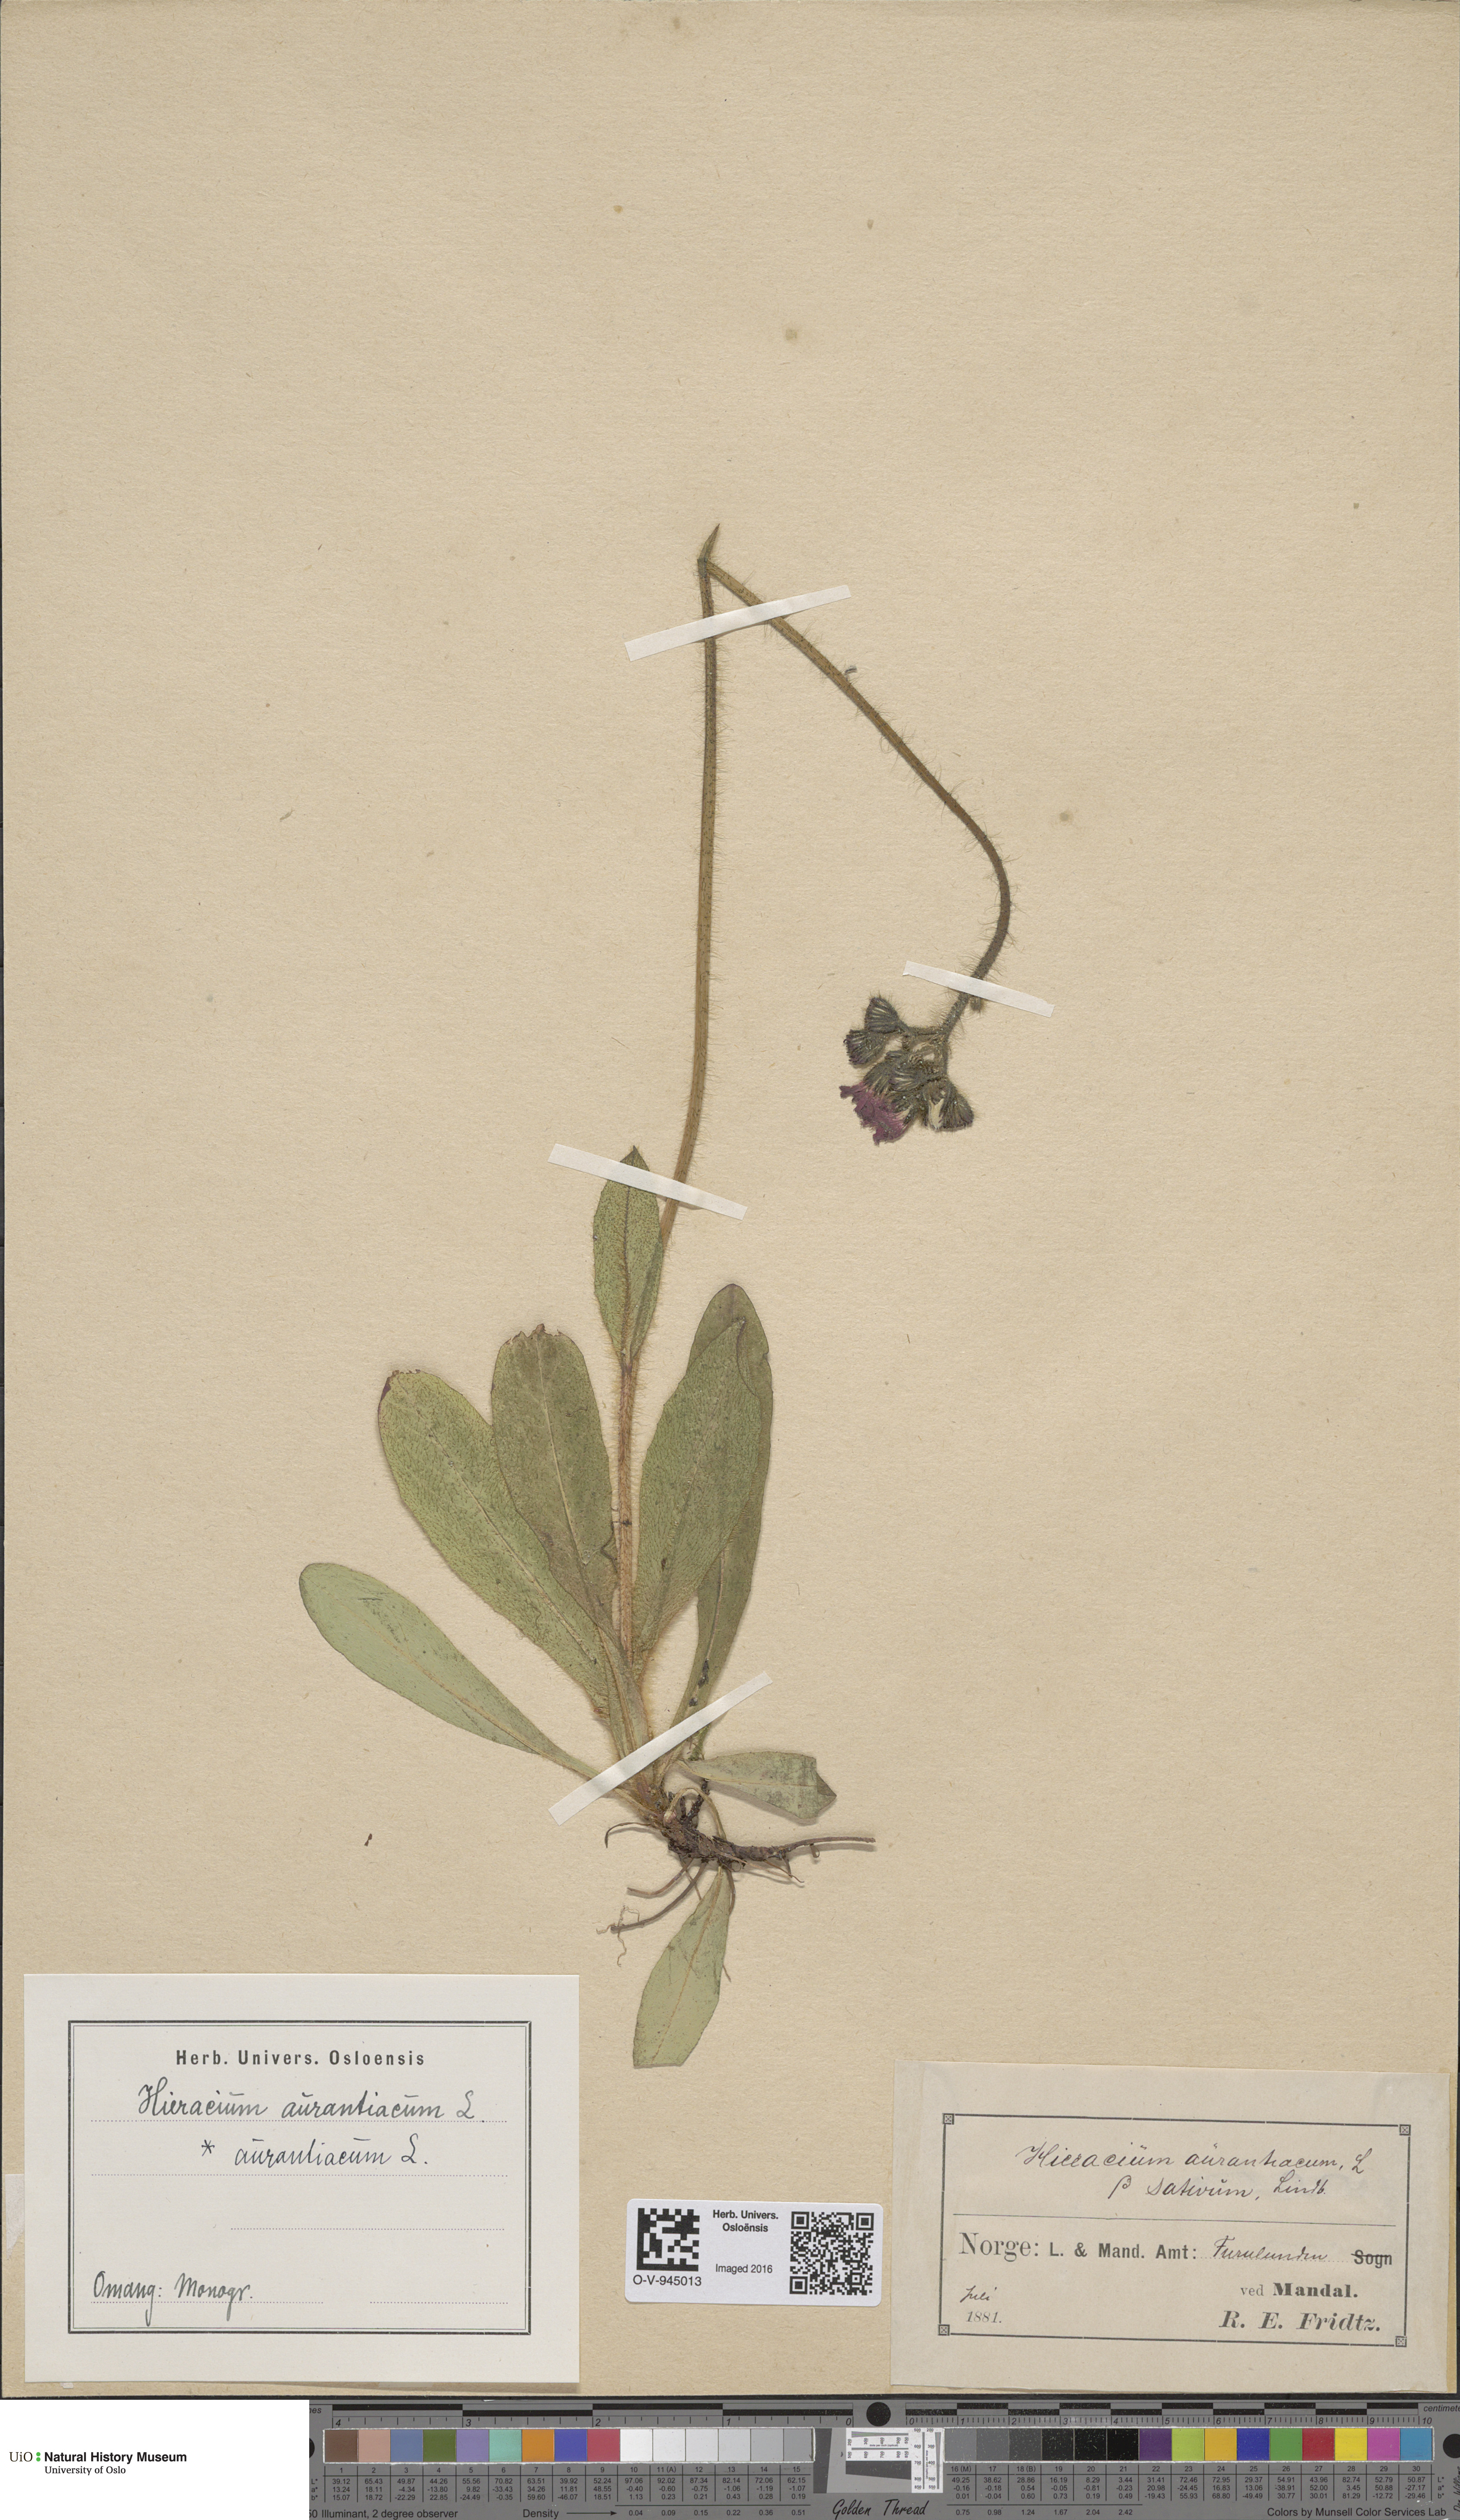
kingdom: Plantae
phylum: Tracheophyta
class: Magnoliopsida
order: Asterales
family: Asteraceae
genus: Pilosella
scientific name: Pilosella aurantiaca
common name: Fox-and-cubs
